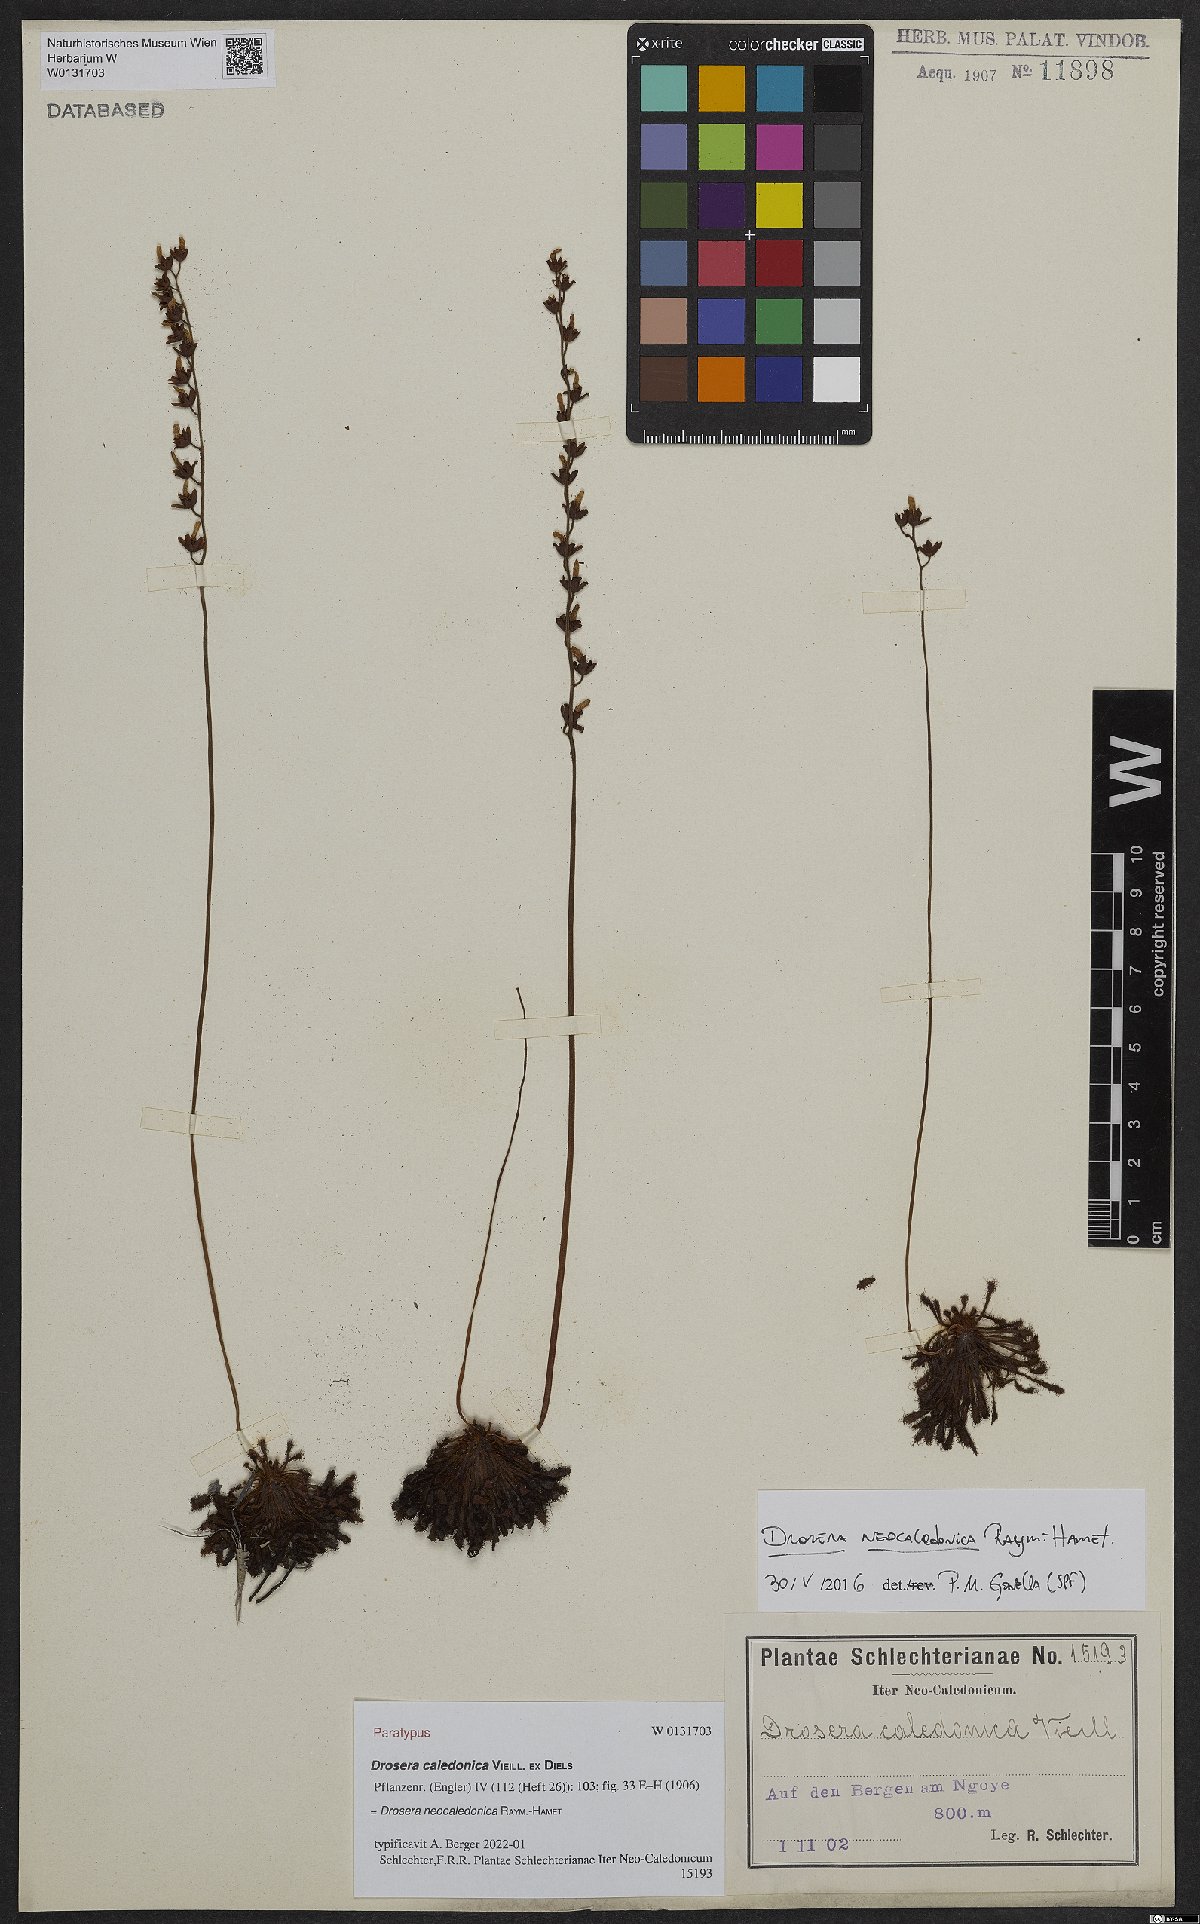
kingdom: Plantae
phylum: Tracheophyta
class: Magnoliopsida
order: Caryophyllales
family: Droseraceae
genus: Drosera
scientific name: Drosera neocaledonica
